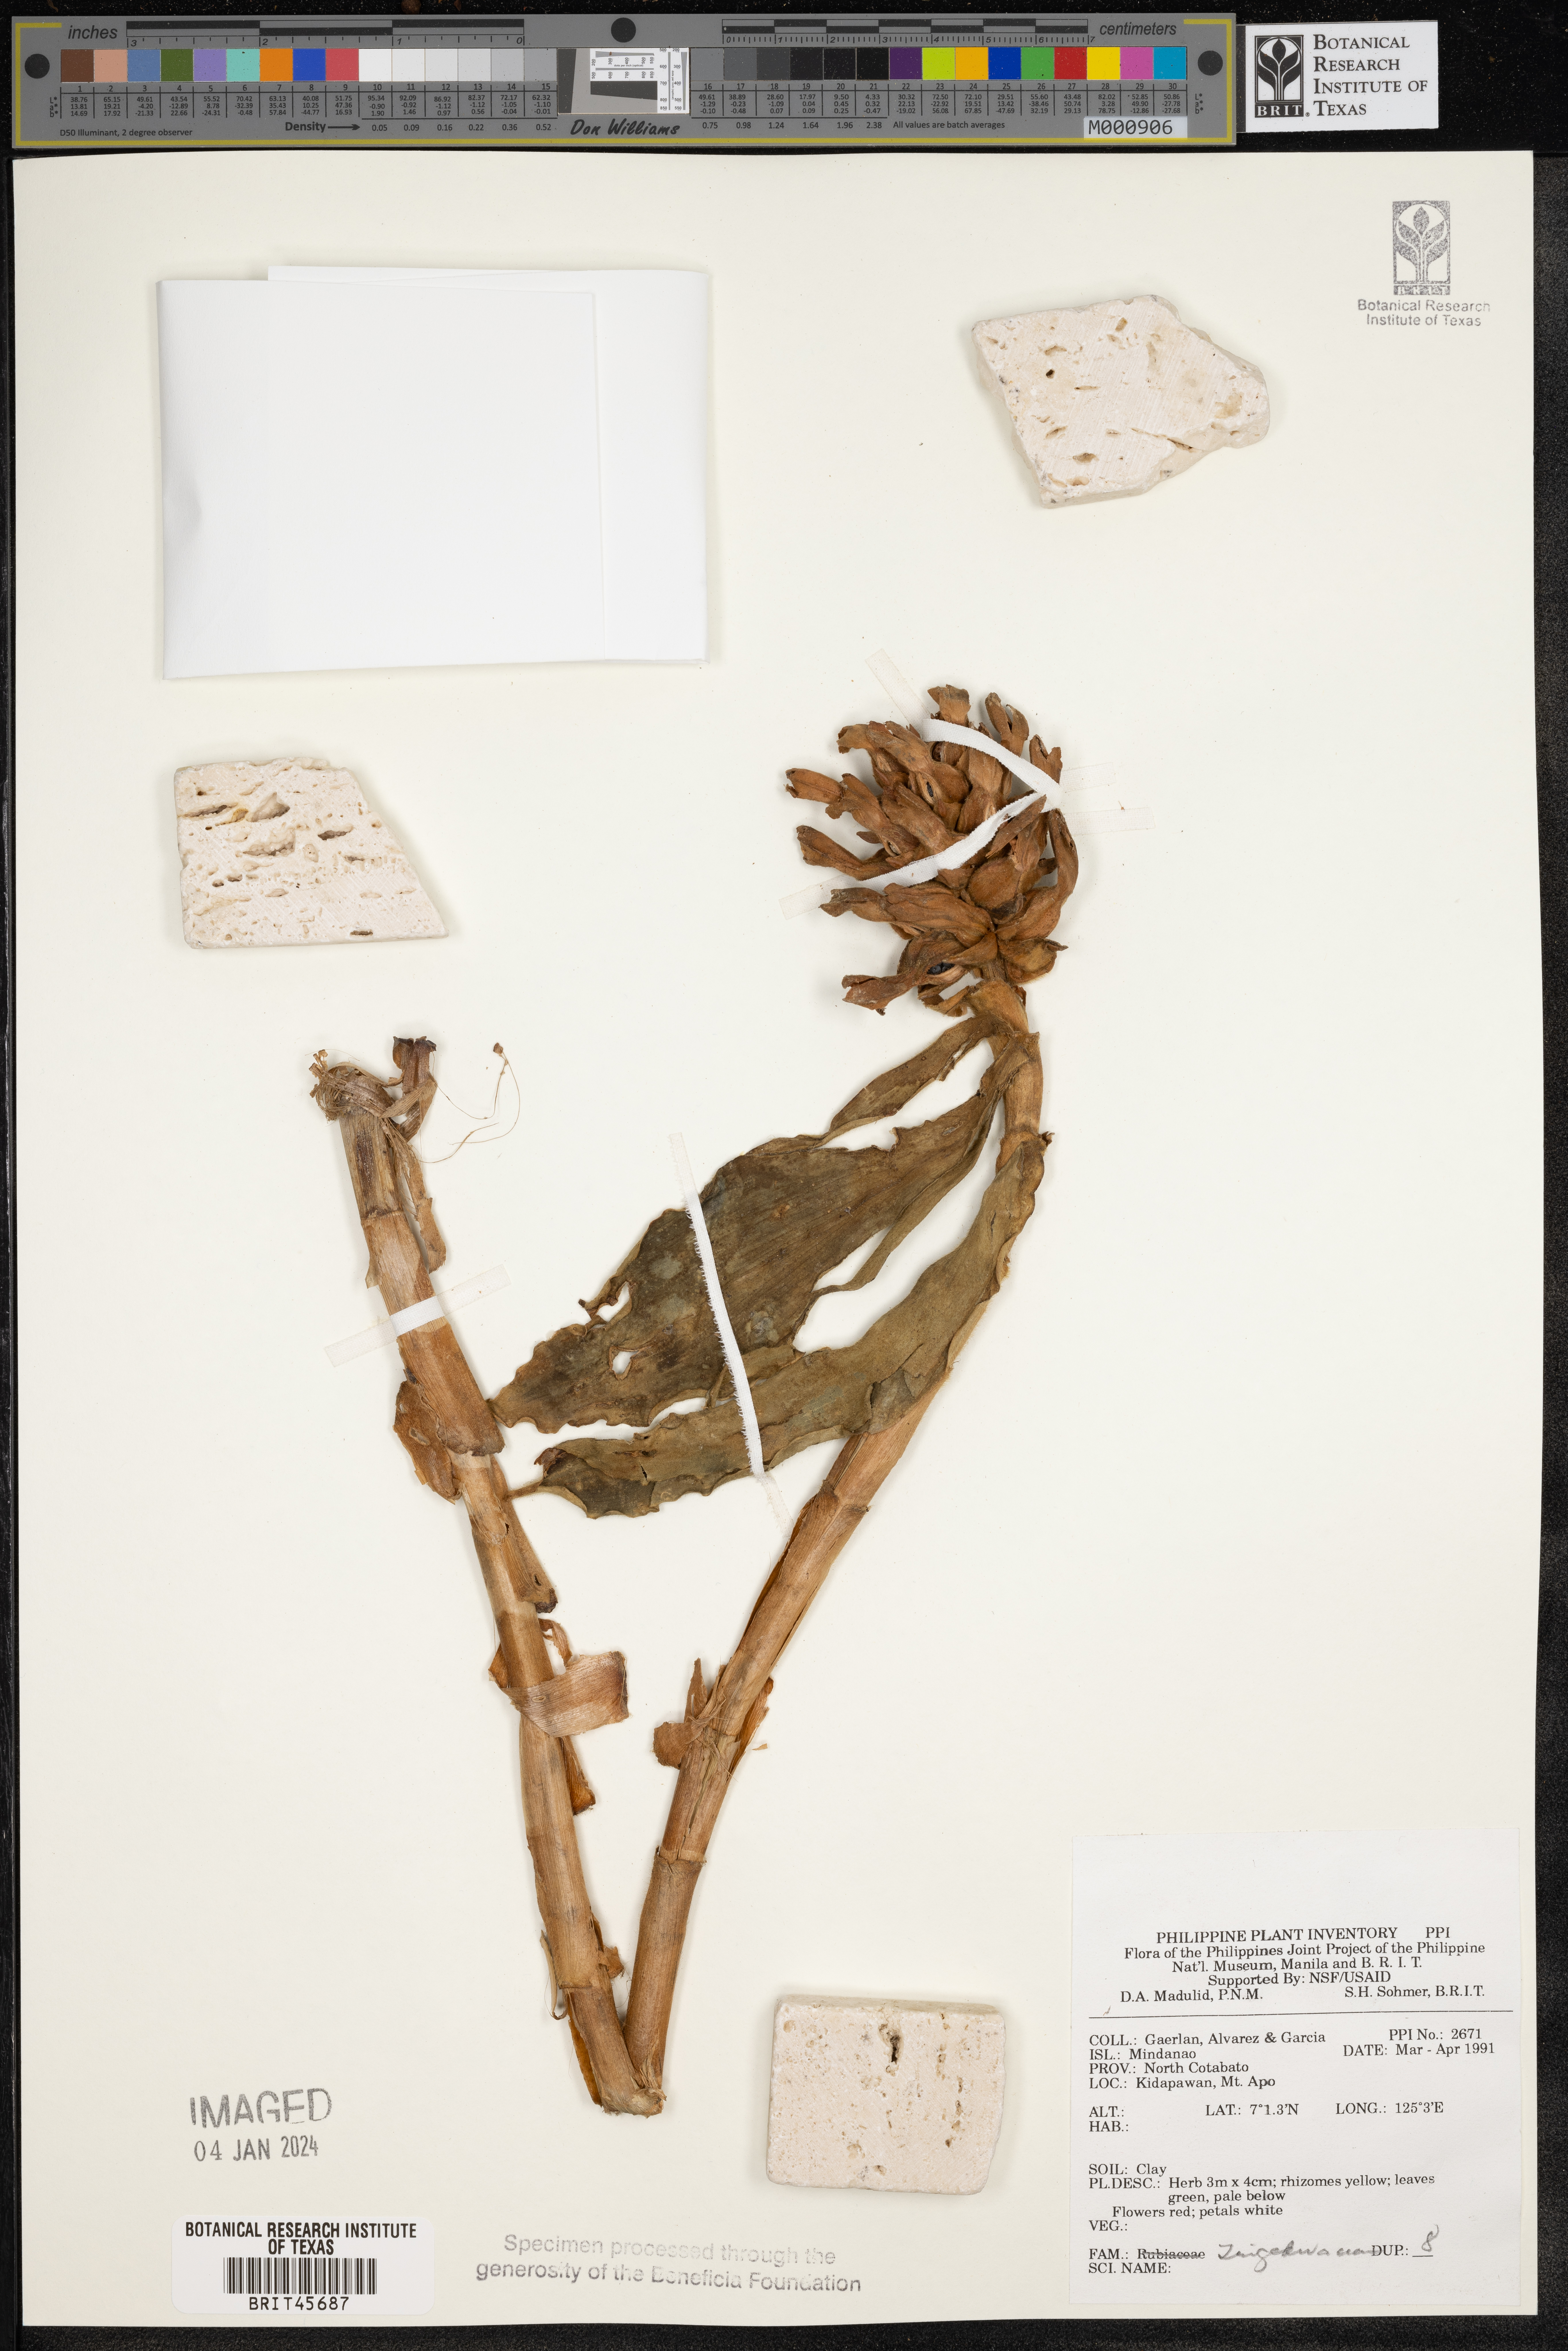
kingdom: Plantae
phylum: Tracheophyta
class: Liliopsida
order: Zingiberales
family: Zingiberaceae
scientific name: Zingiberaceae
